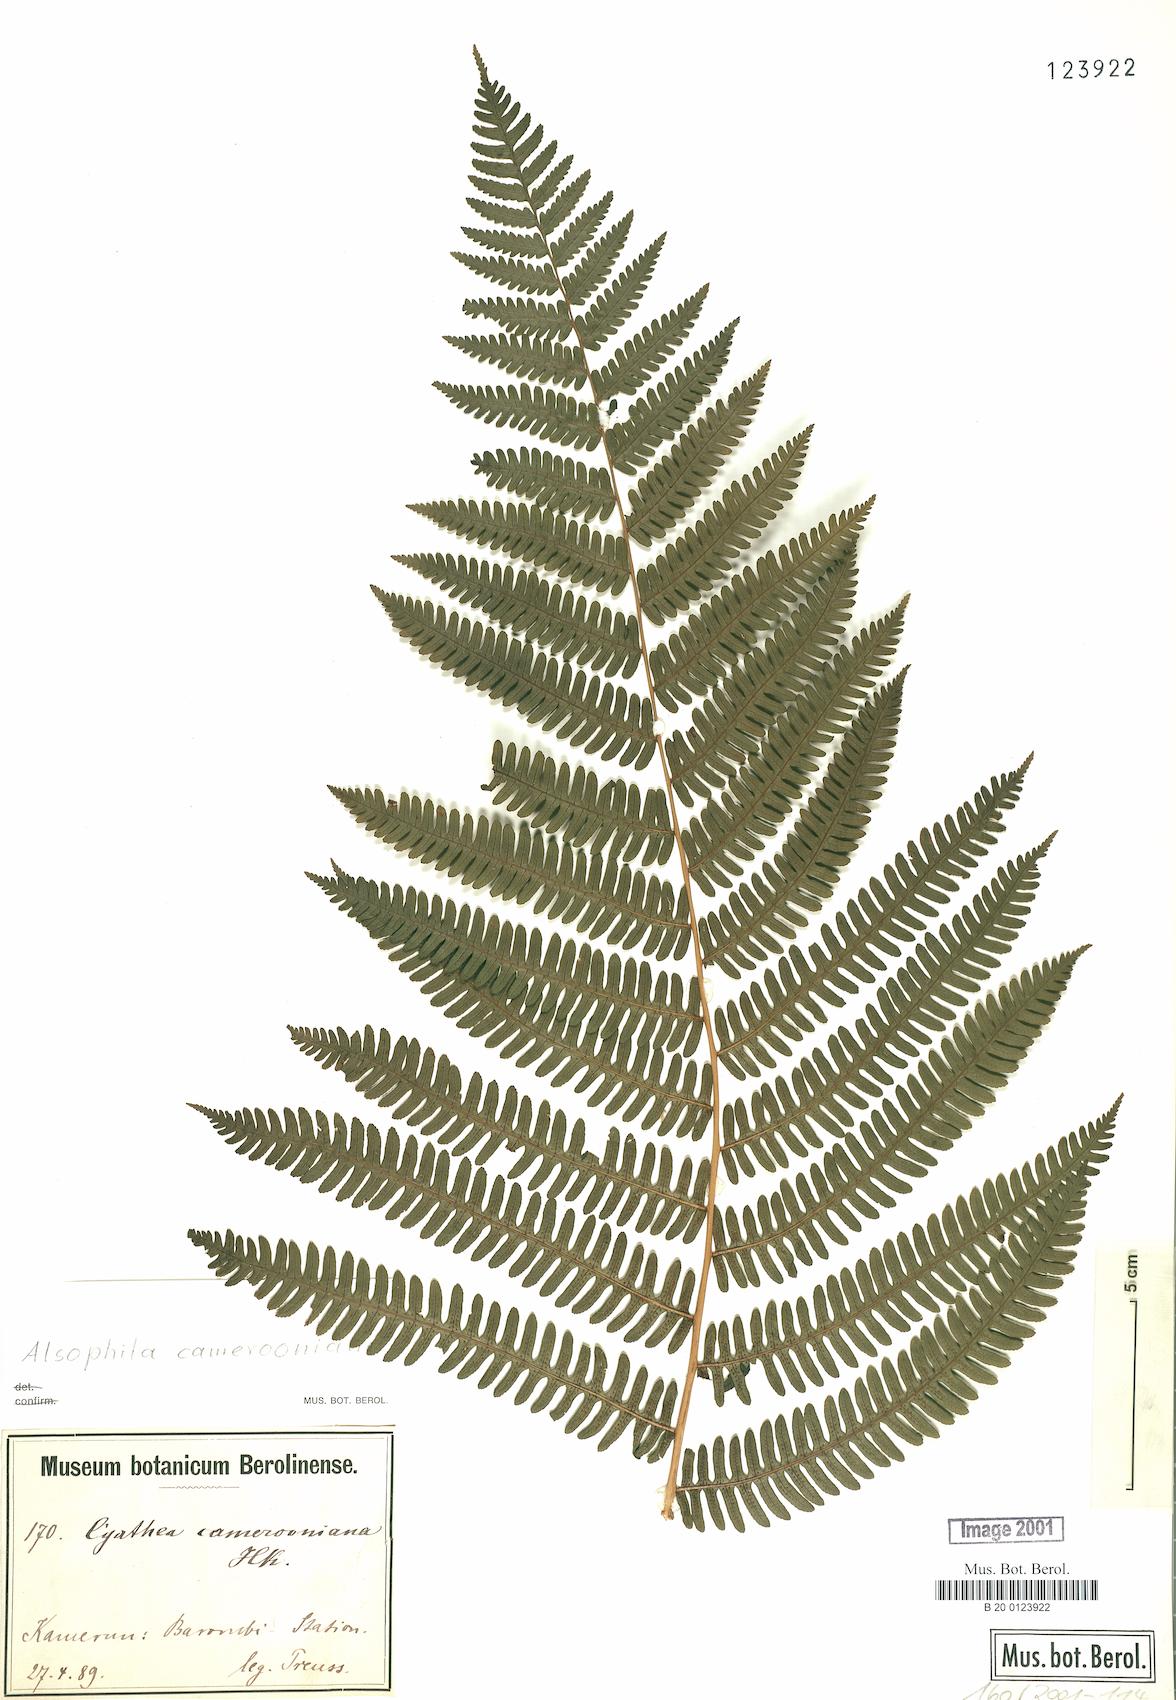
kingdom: Plantae
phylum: Tracheophyta
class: Polypodiopsida
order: Cyatheales
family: Cyatheaceae
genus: Alsophila
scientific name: Alsophila camerooniana
